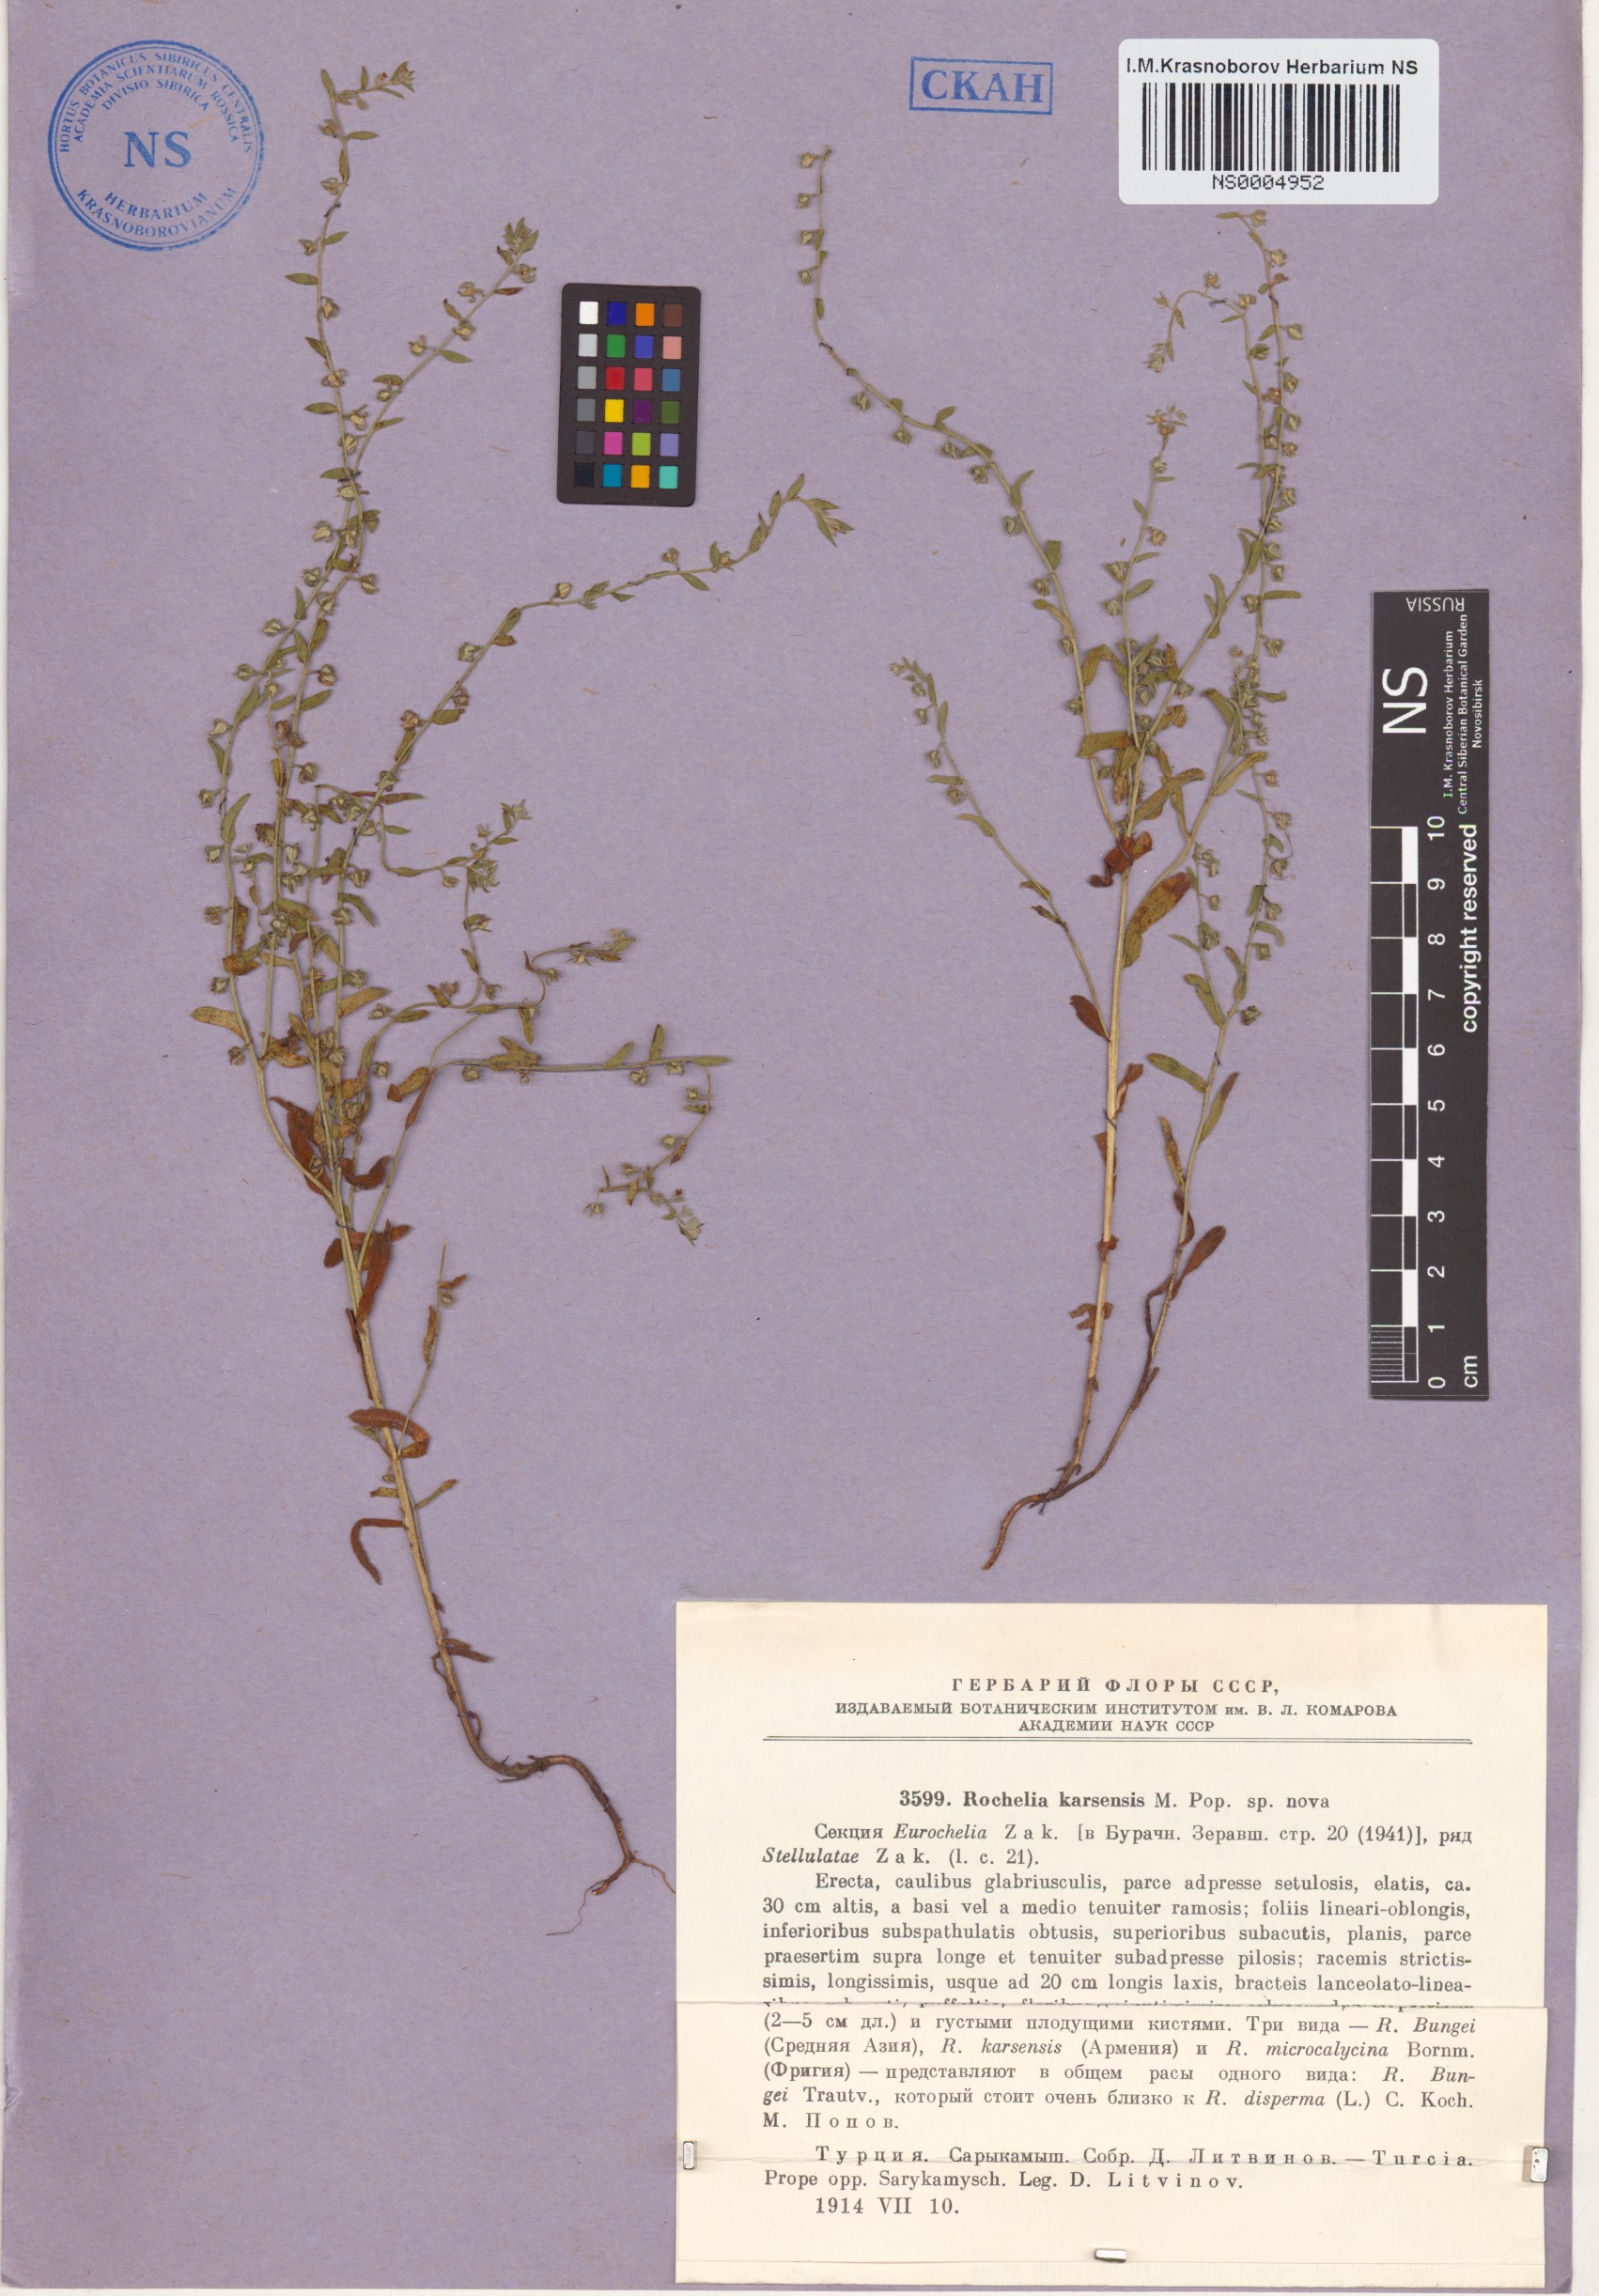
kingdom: Plantae
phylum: Tracheophyta
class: Magnoliopsida
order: Boraginales
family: Boraginaceae
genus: Rochelia
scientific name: Rochelia disperma
